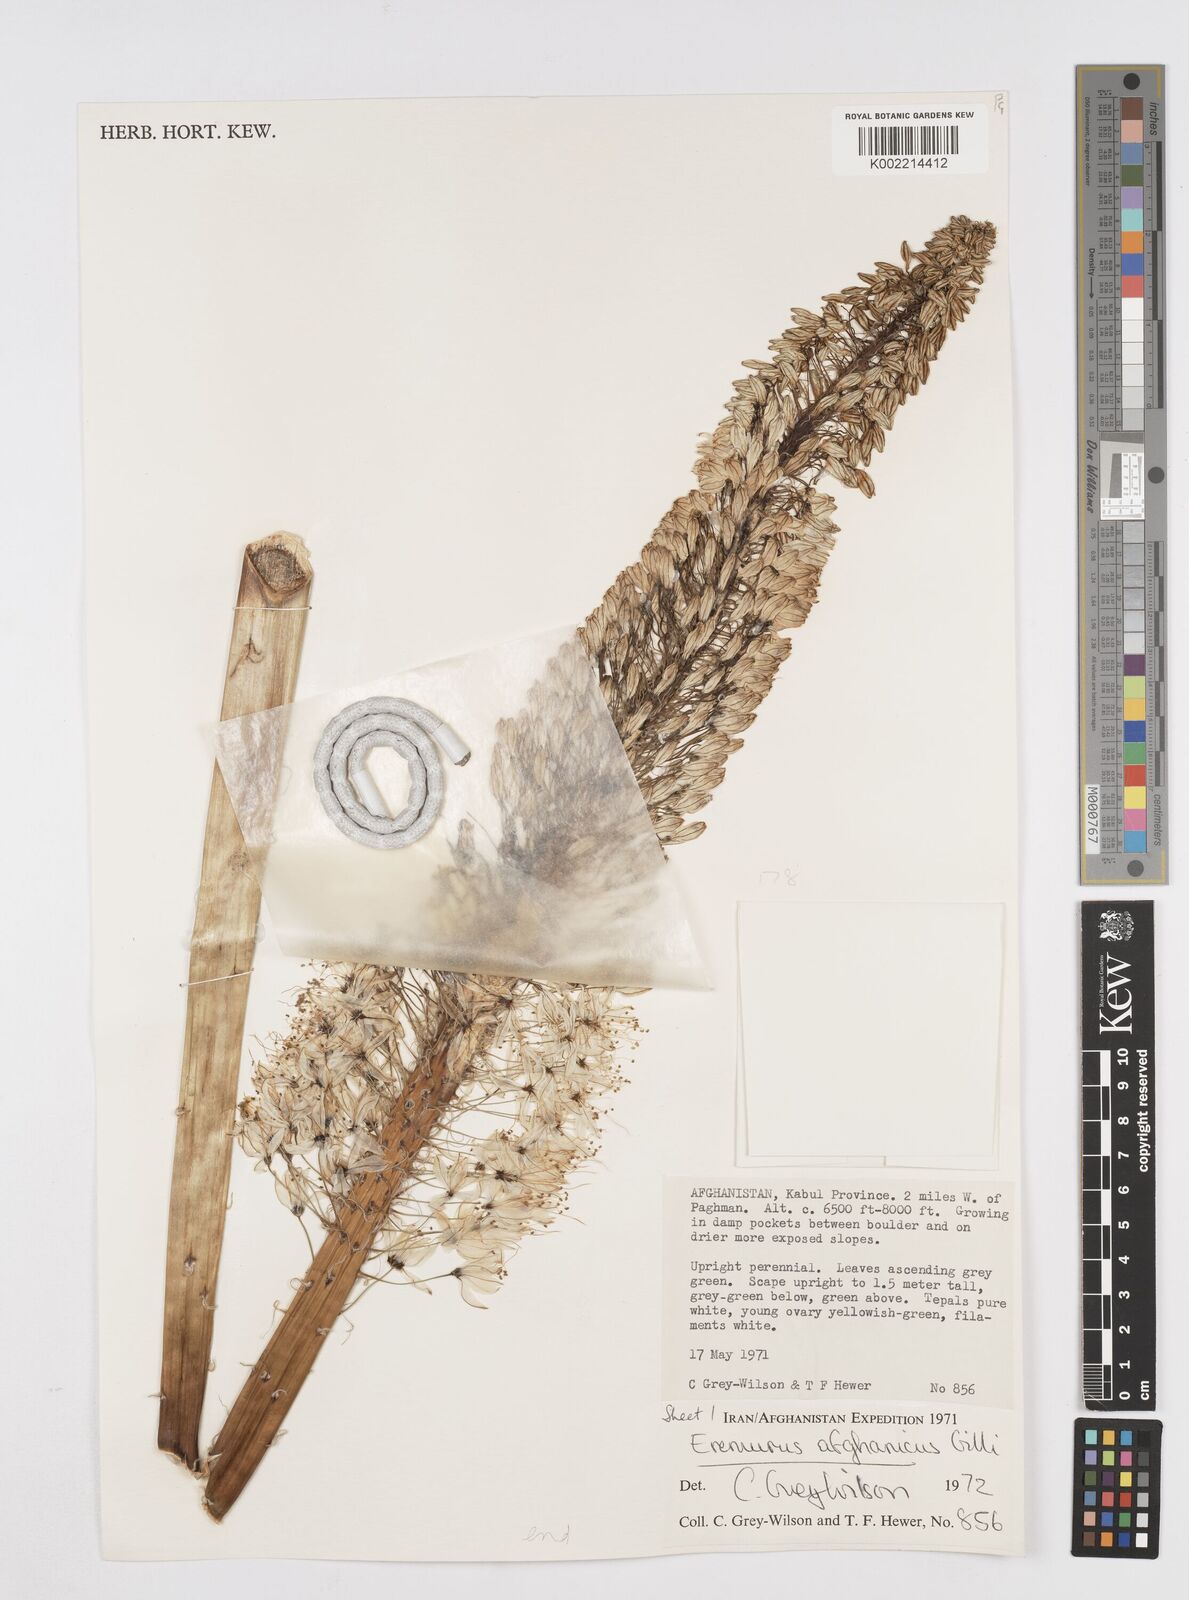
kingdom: Plantae
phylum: Tracheophyta
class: Liliopsida
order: Asparagales
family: Asphodelaceae
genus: Eremurus
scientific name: Eremurus afghanicus
